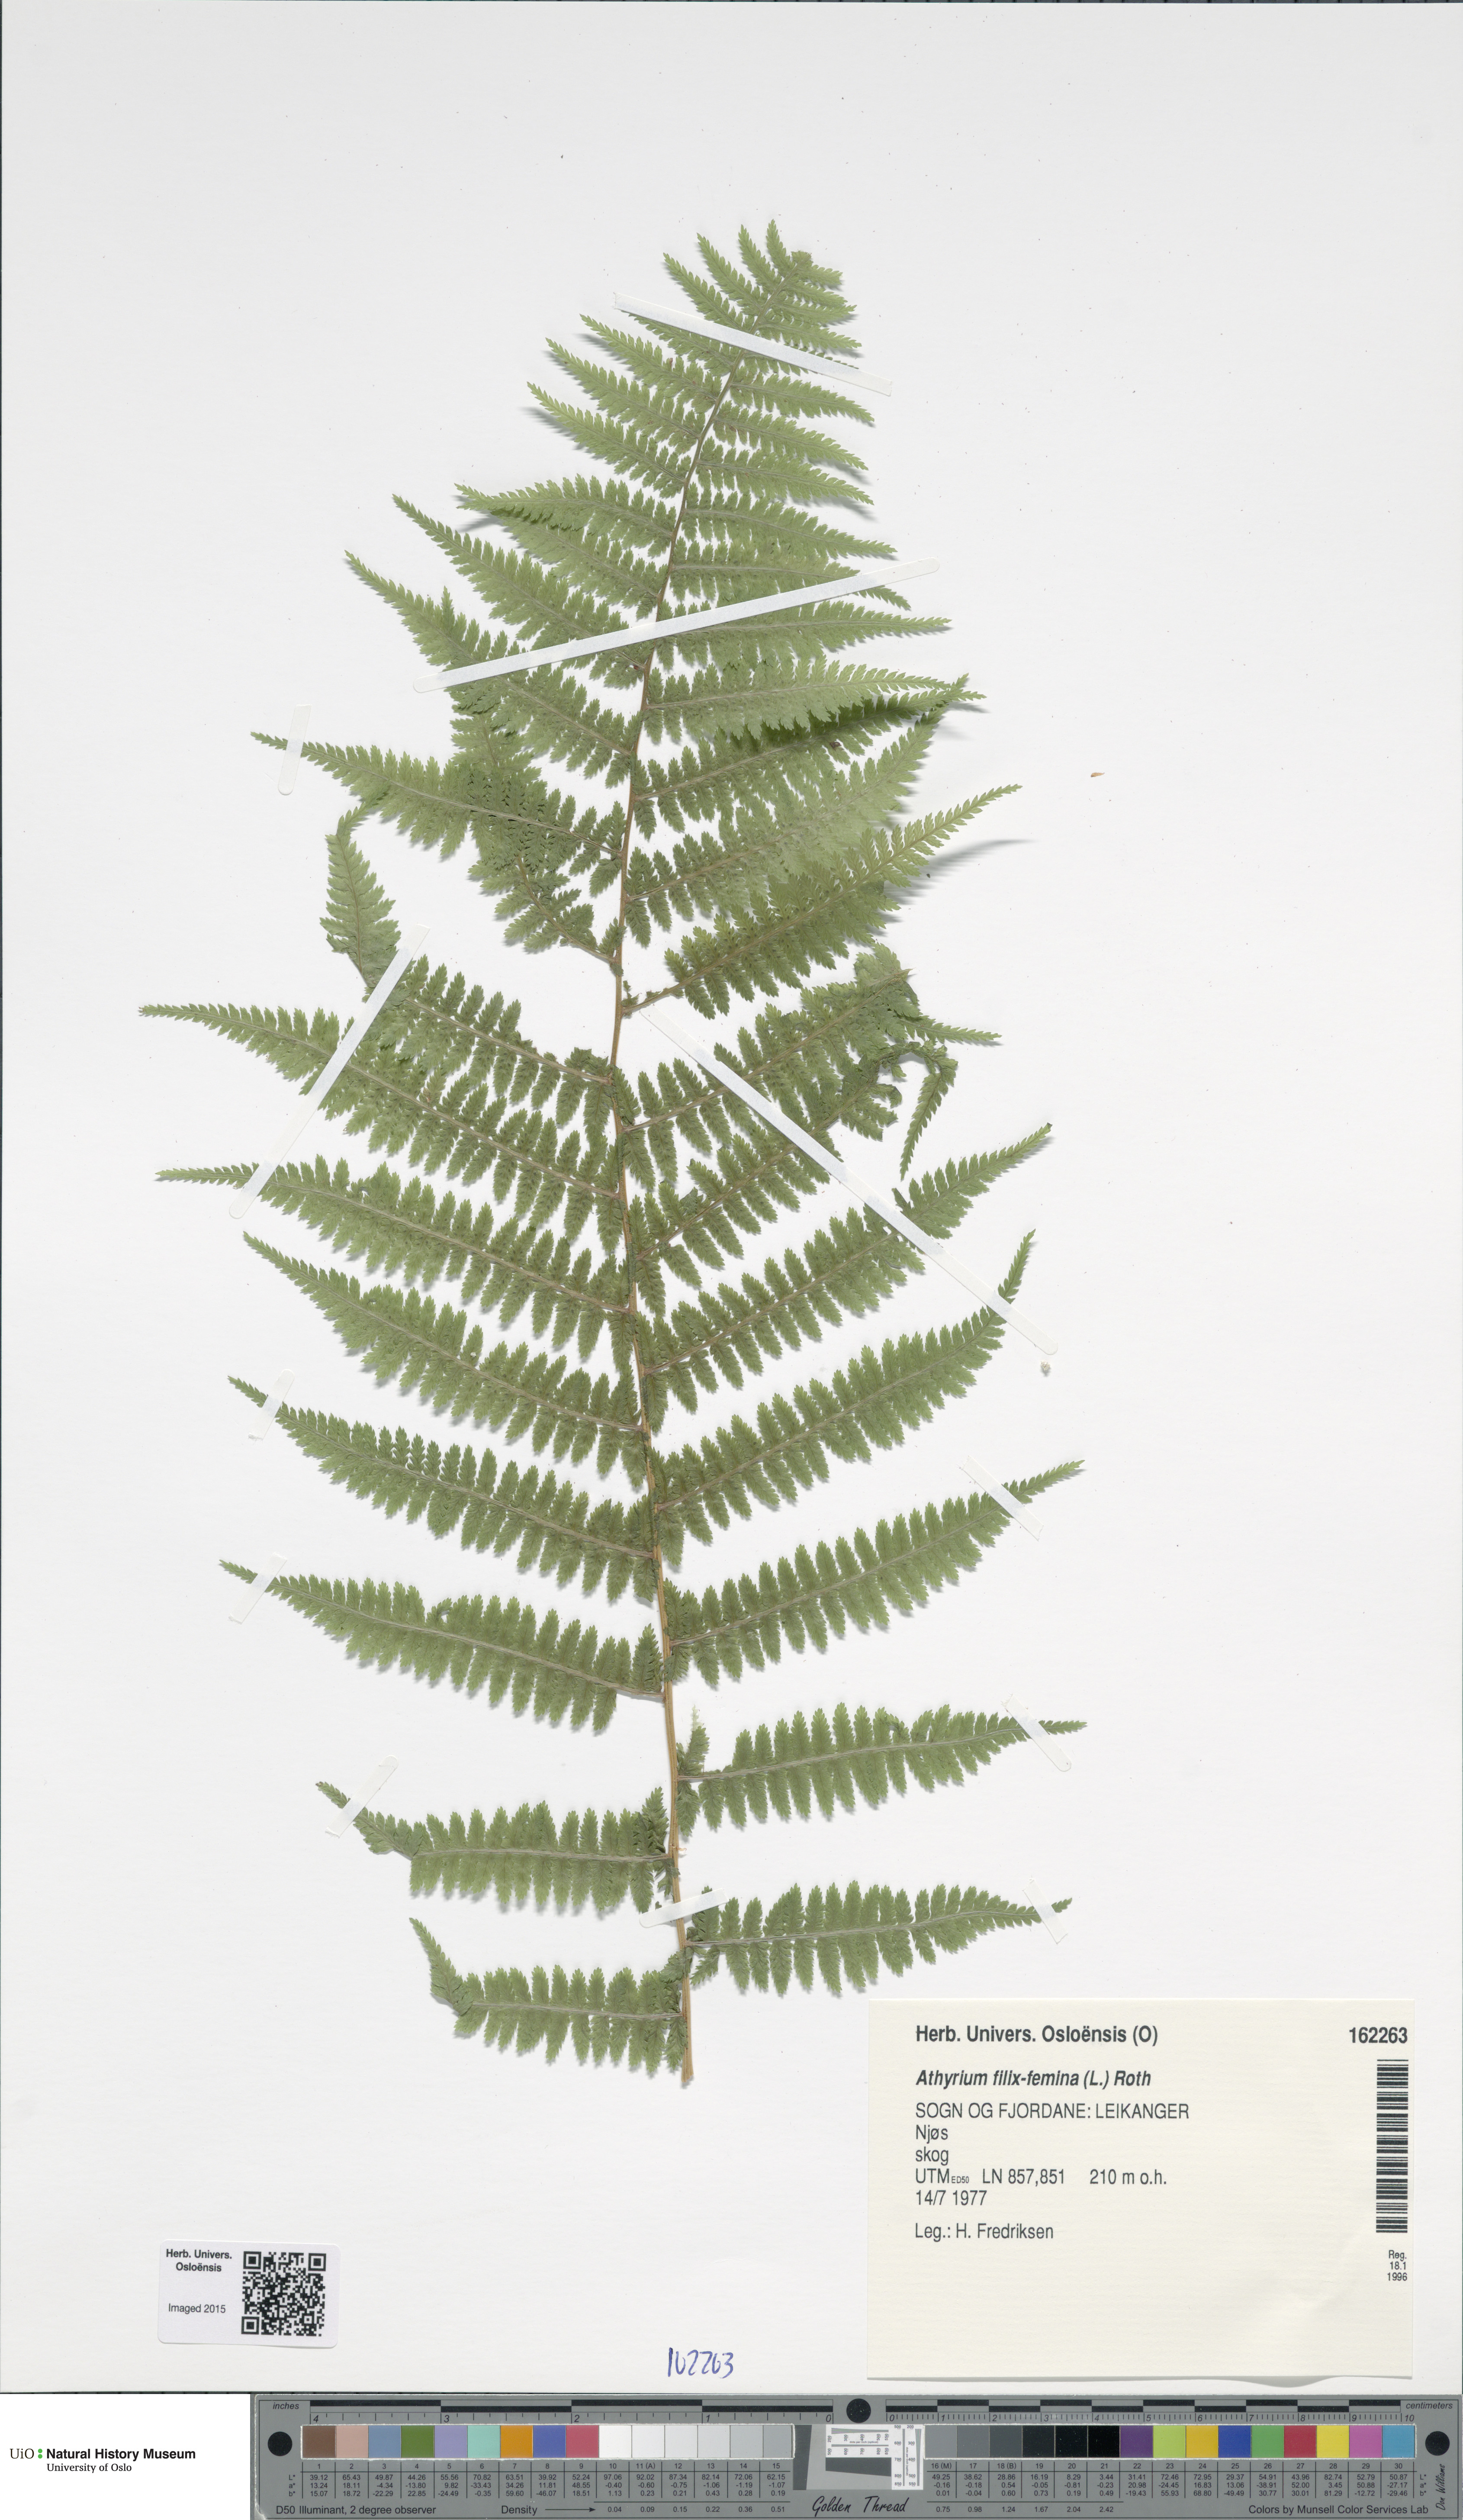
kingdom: Plantae
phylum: Tracheophyta
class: Polypodiopsida
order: Polypodiales
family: Athyriaceae
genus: Athyrium
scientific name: Athyrium filix-femina
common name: Lady fern
